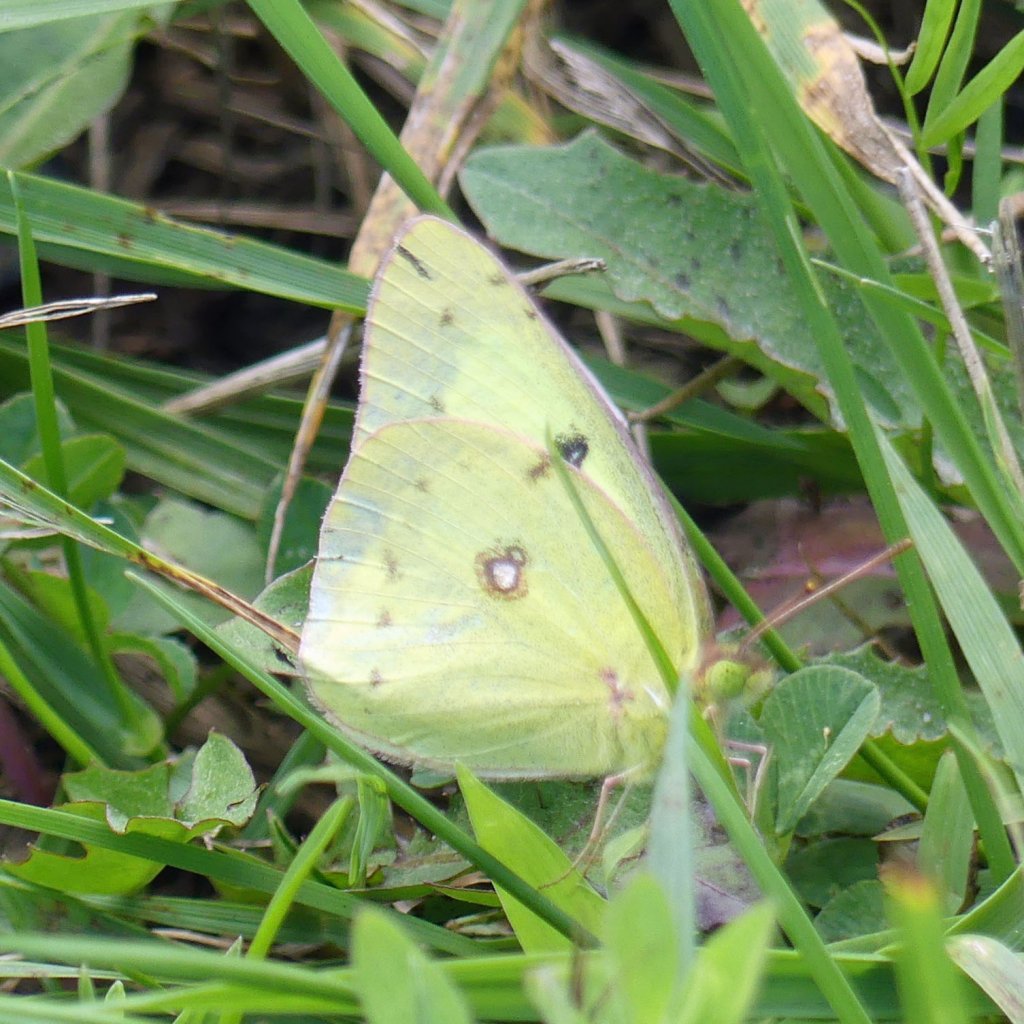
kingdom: Animalia
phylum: Arthropoda
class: Insecta
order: Lepidoptera
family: Pieridae
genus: Colias
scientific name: Colias philodice
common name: Clouded Sulphur
